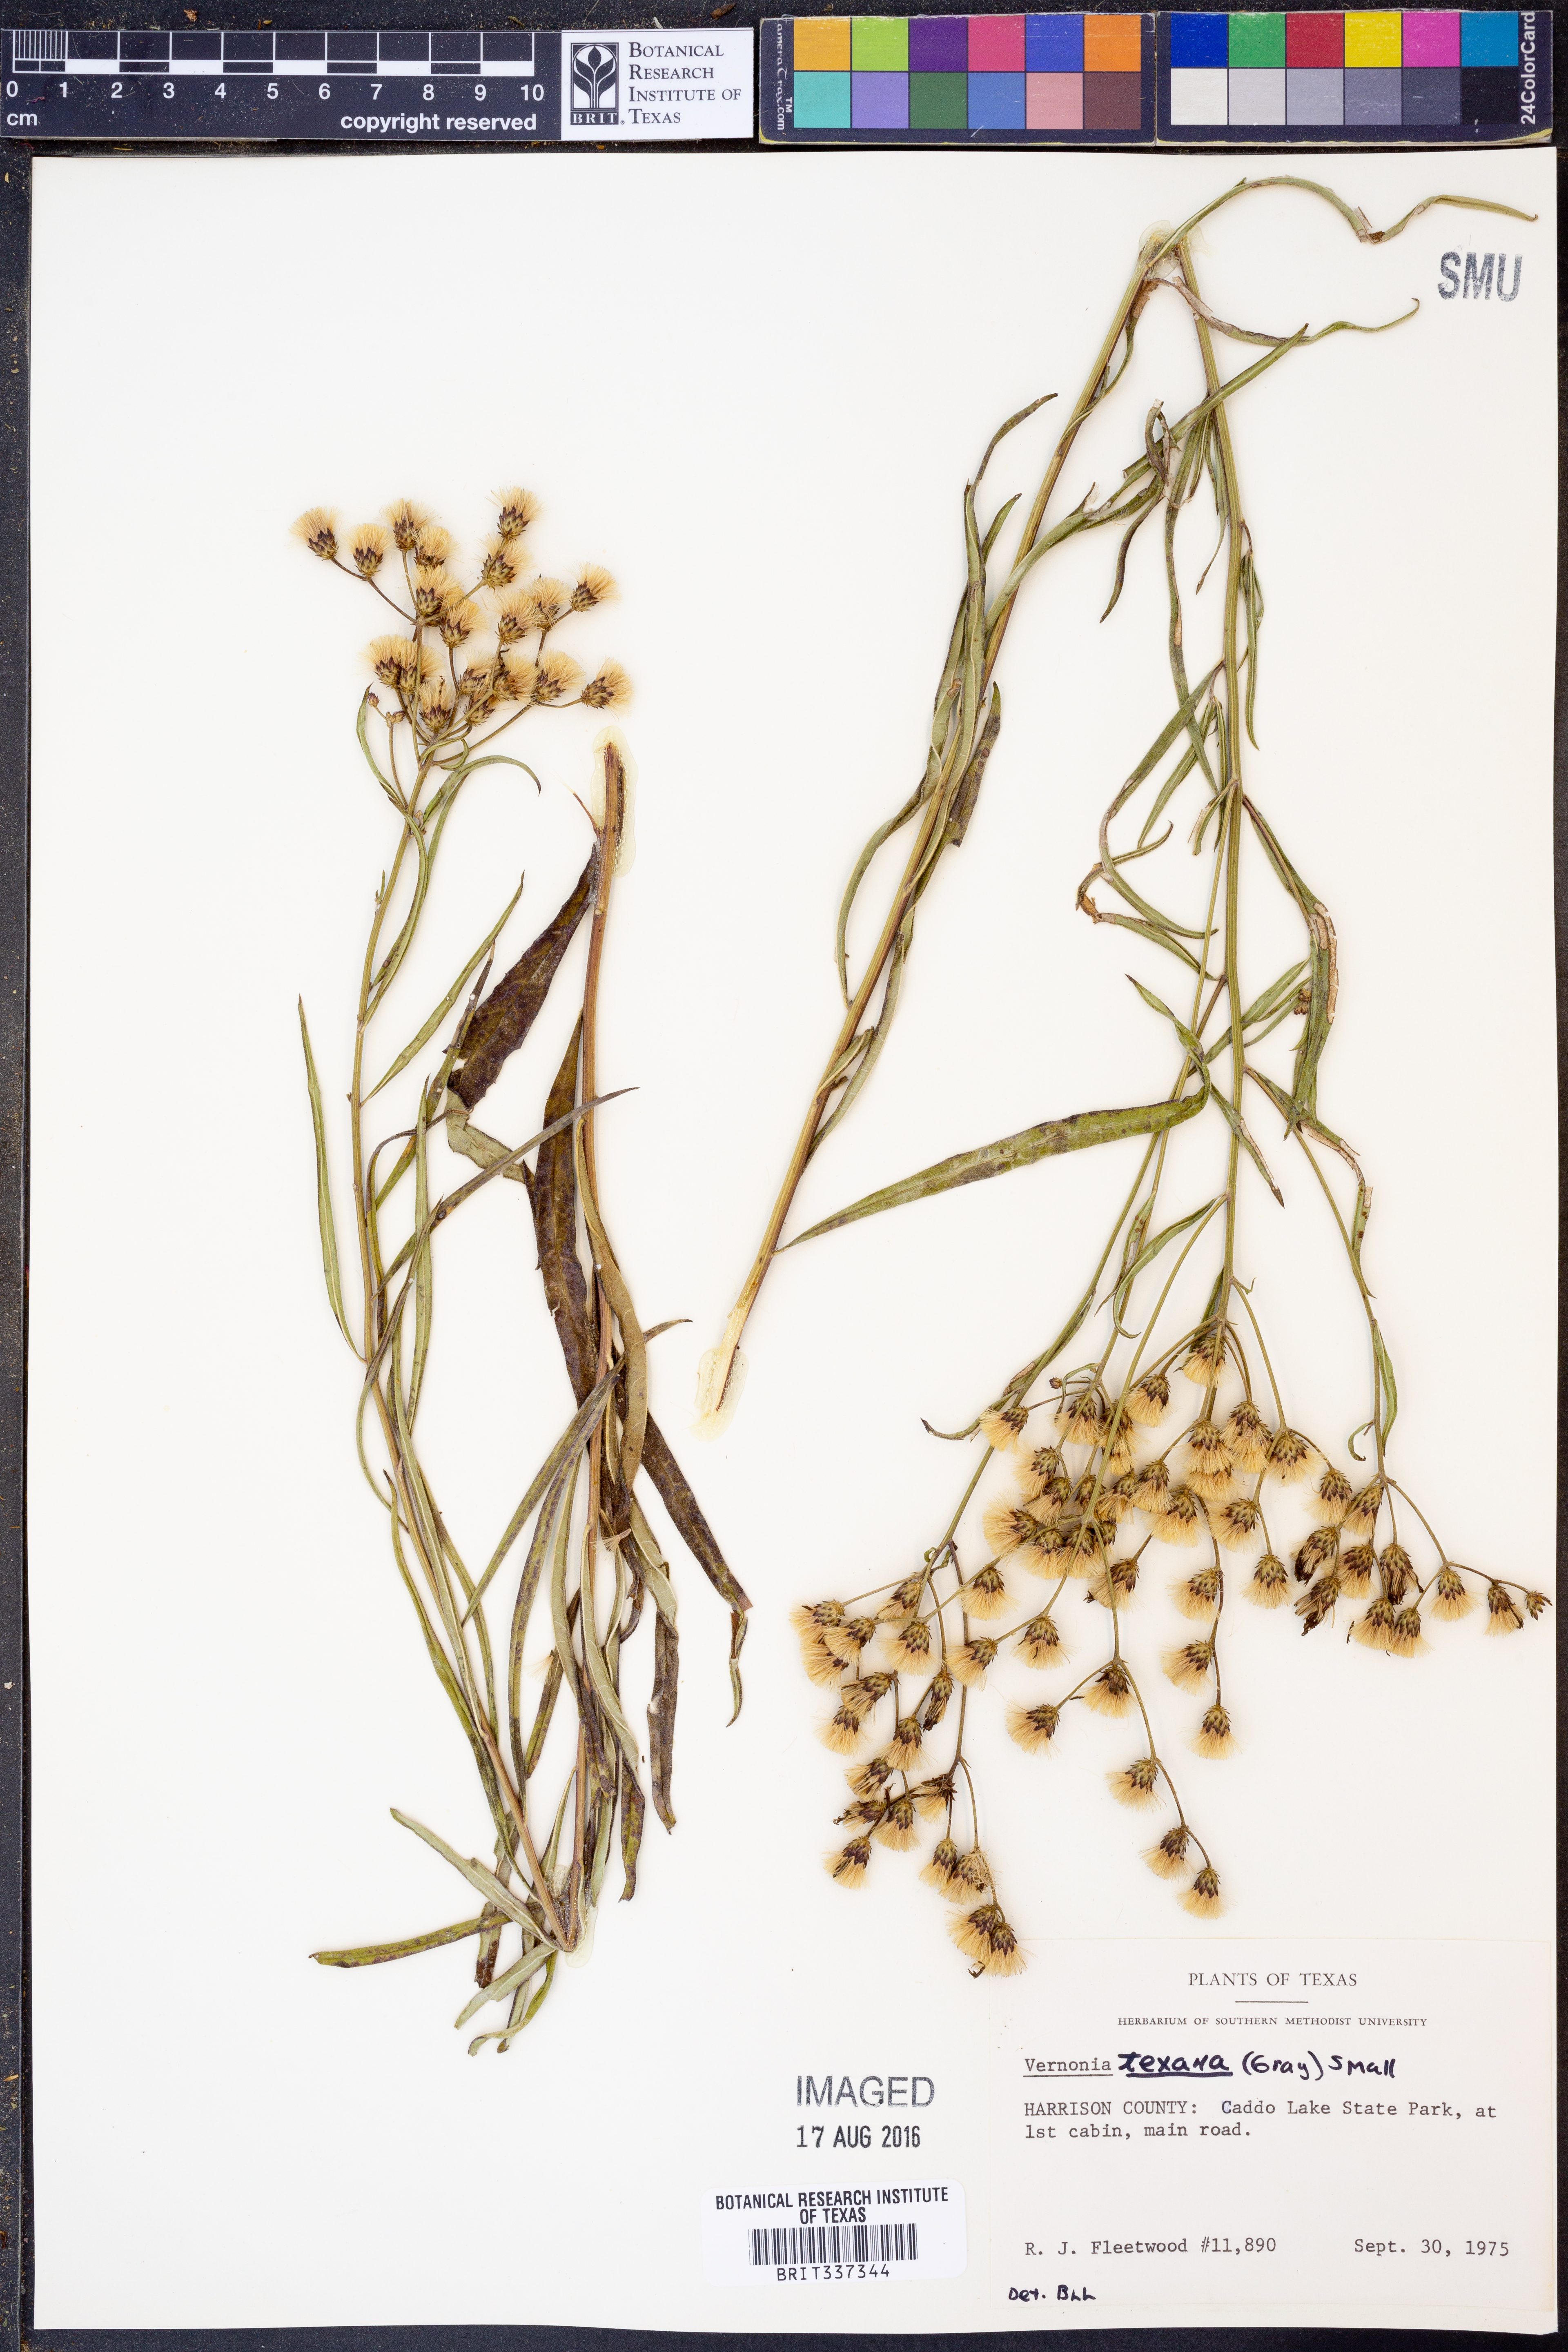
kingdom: Plantae
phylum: Tracheophyta
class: Magnoliopsida
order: Asterales
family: Asteraceae
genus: Vernonia
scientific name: Vernonia texana
